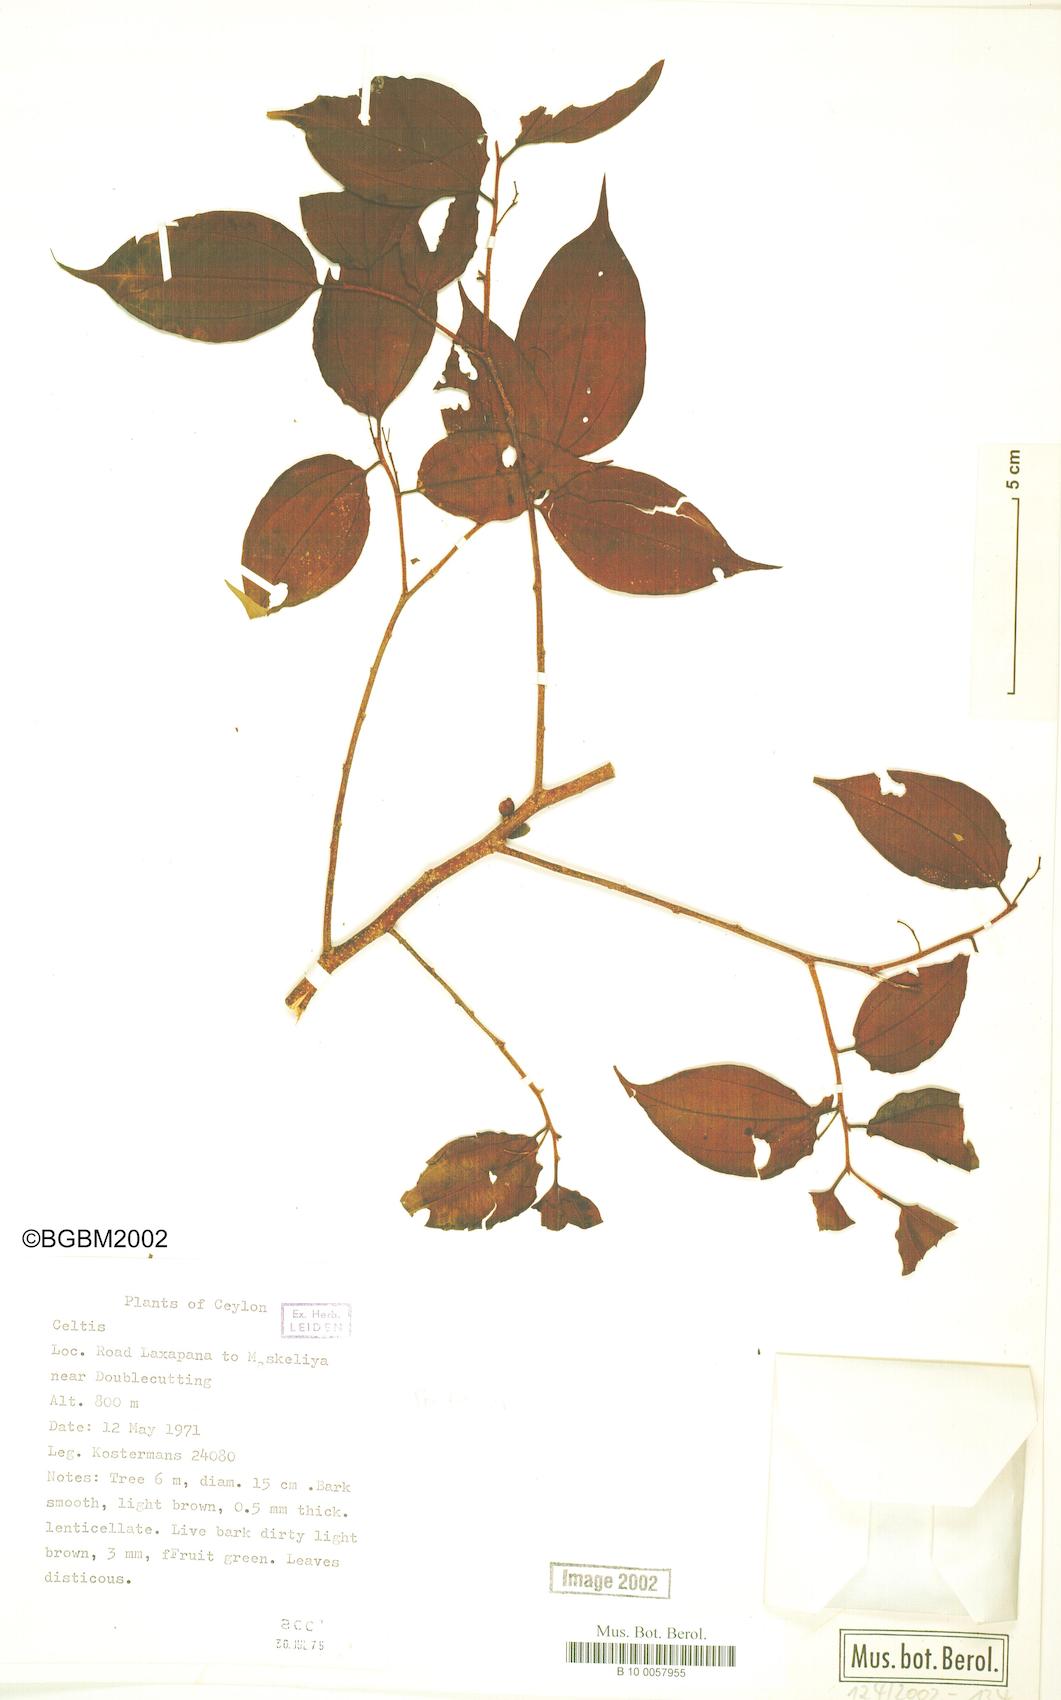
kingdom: Plantae
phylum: Tracheophyta
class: Magnoliopsida
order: Rosales
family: Cannabaceae
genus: Celtis
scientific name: Celtis
